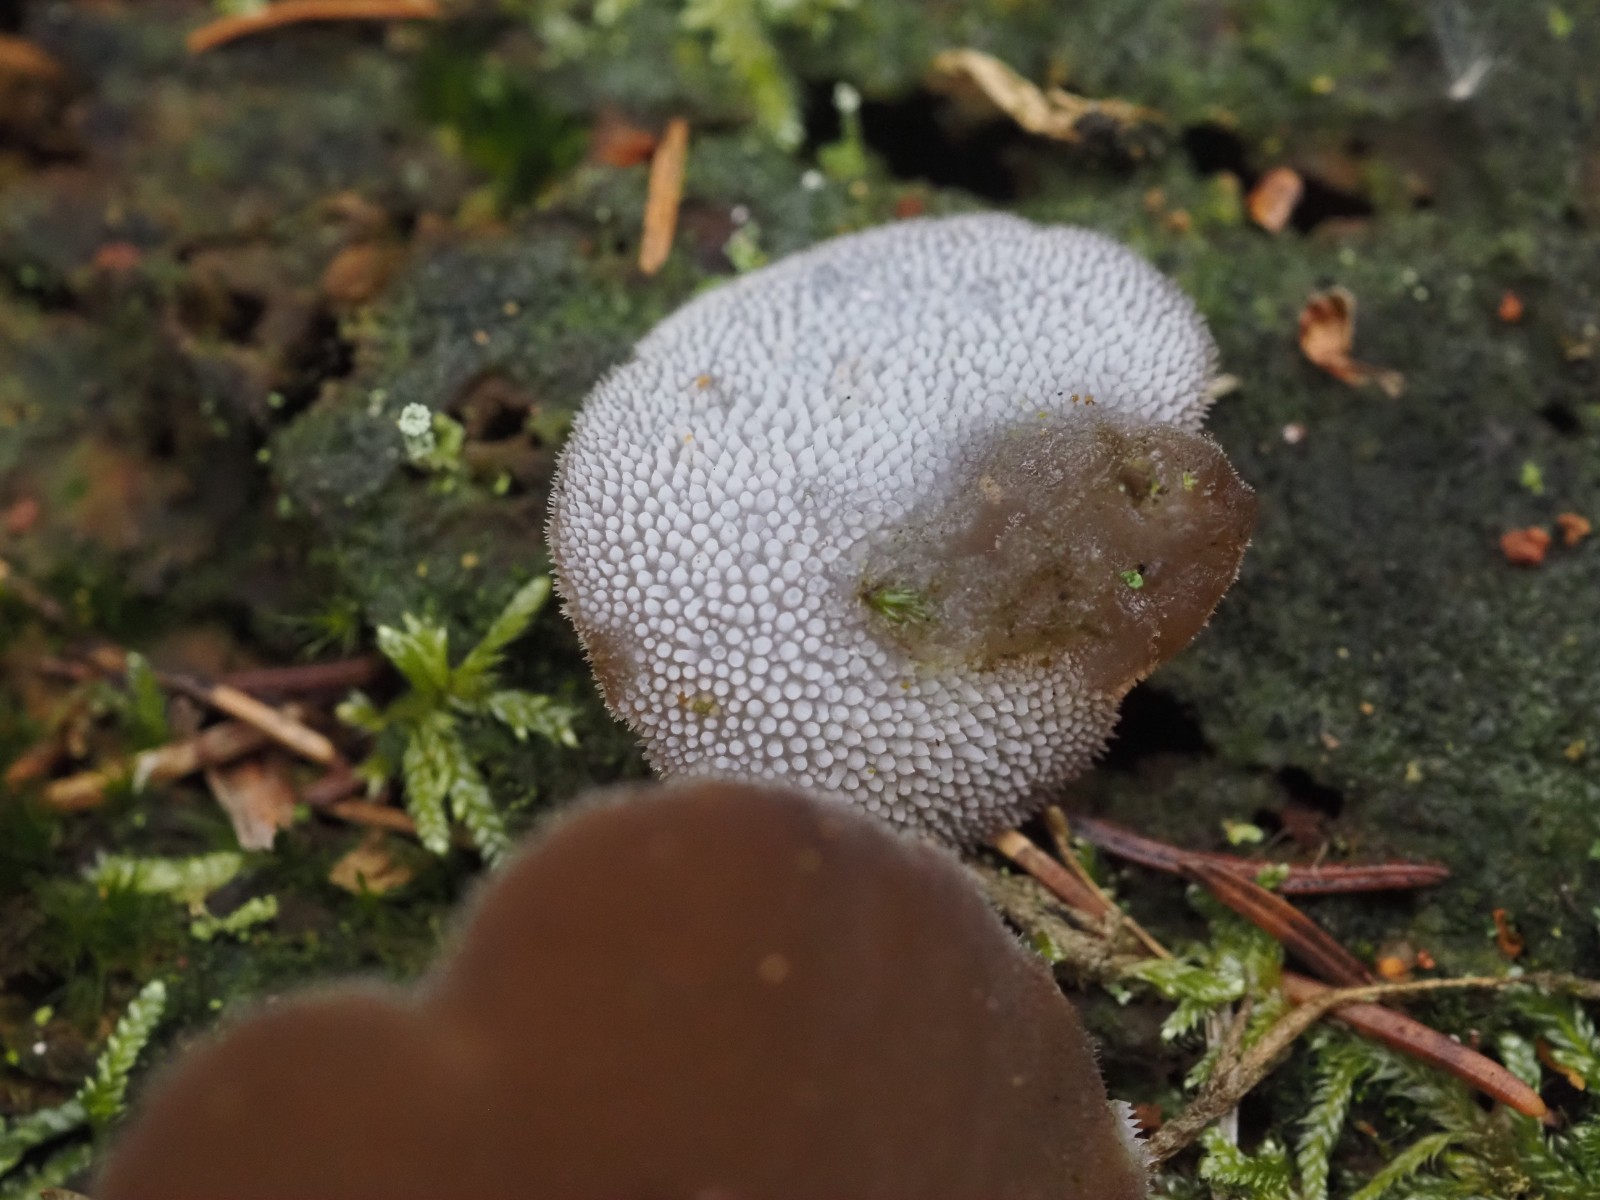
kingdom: Fungi
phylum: Basidiomycota
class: Agaricomycetes
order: Auriculariales
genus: Pseudohydnum
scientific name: Pseudohydnum gelatinosum
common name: bævretand
